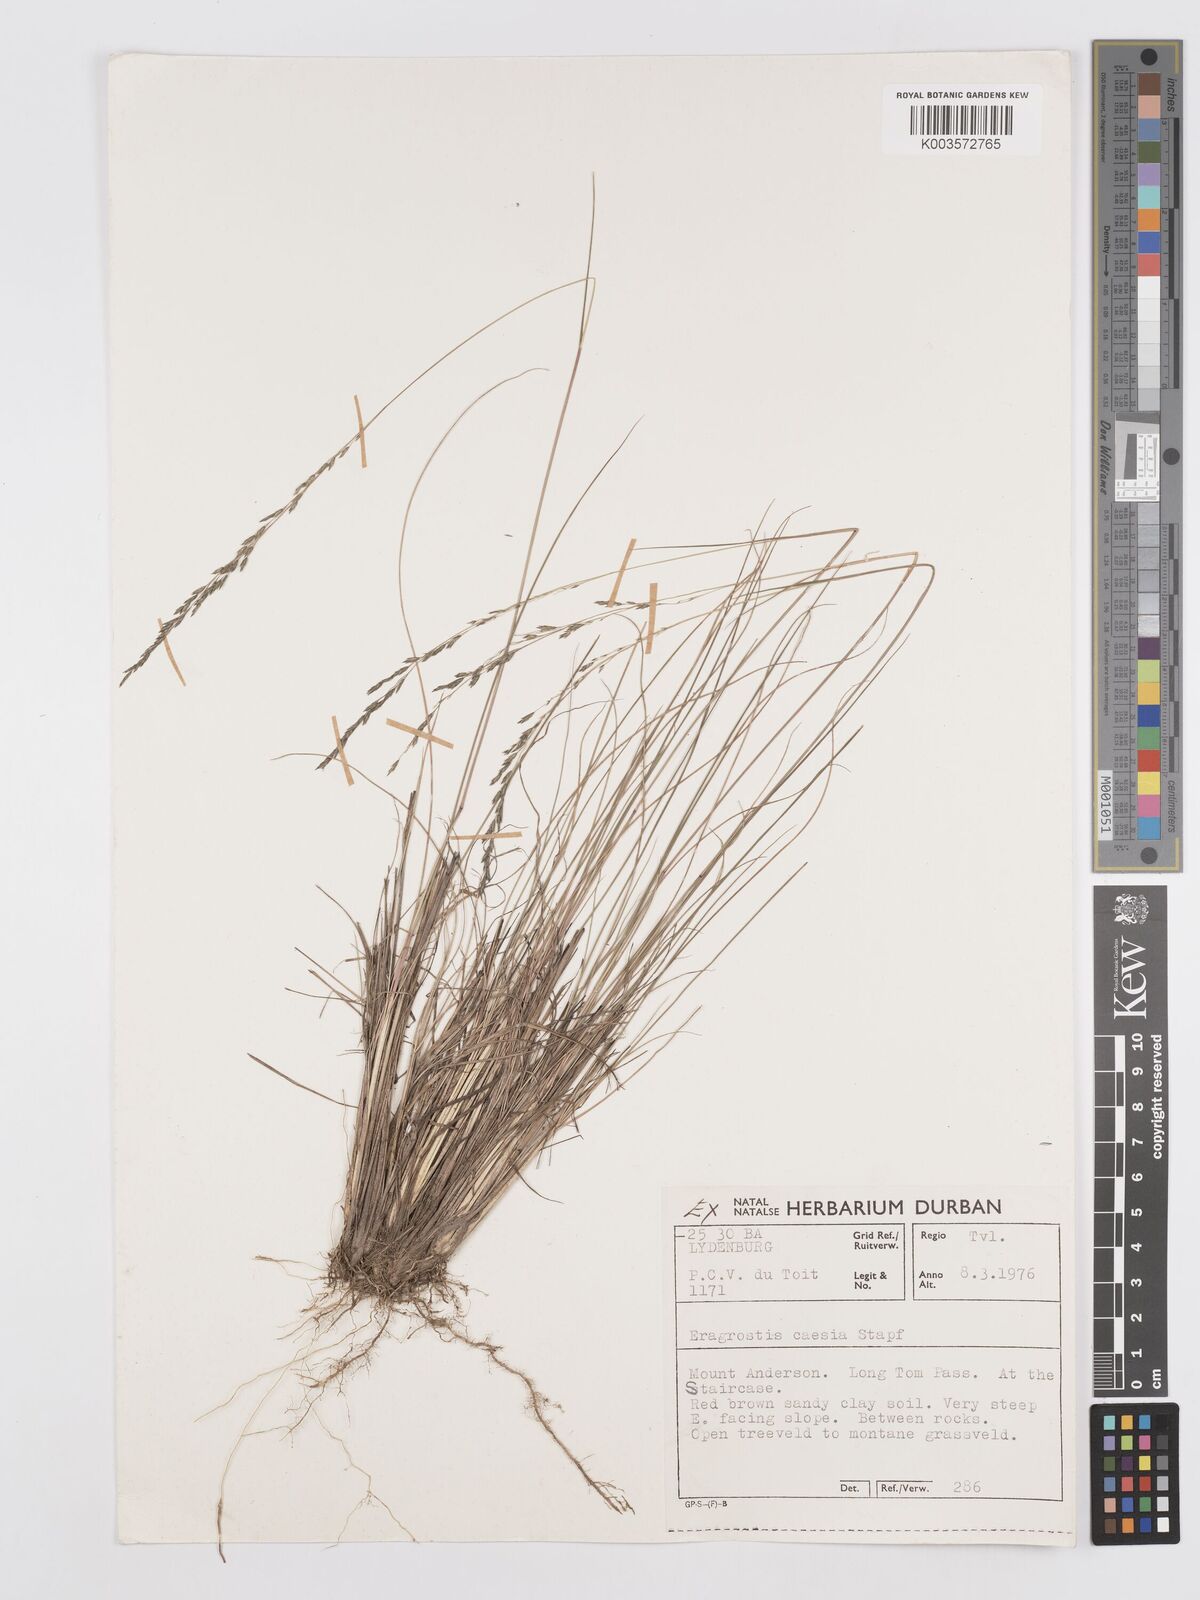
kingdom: Plantae
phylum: Tracheophyta
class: Liliopsida
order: Poales
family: Poaceae
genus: Eragrostis
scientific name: Eragrostis caesia
